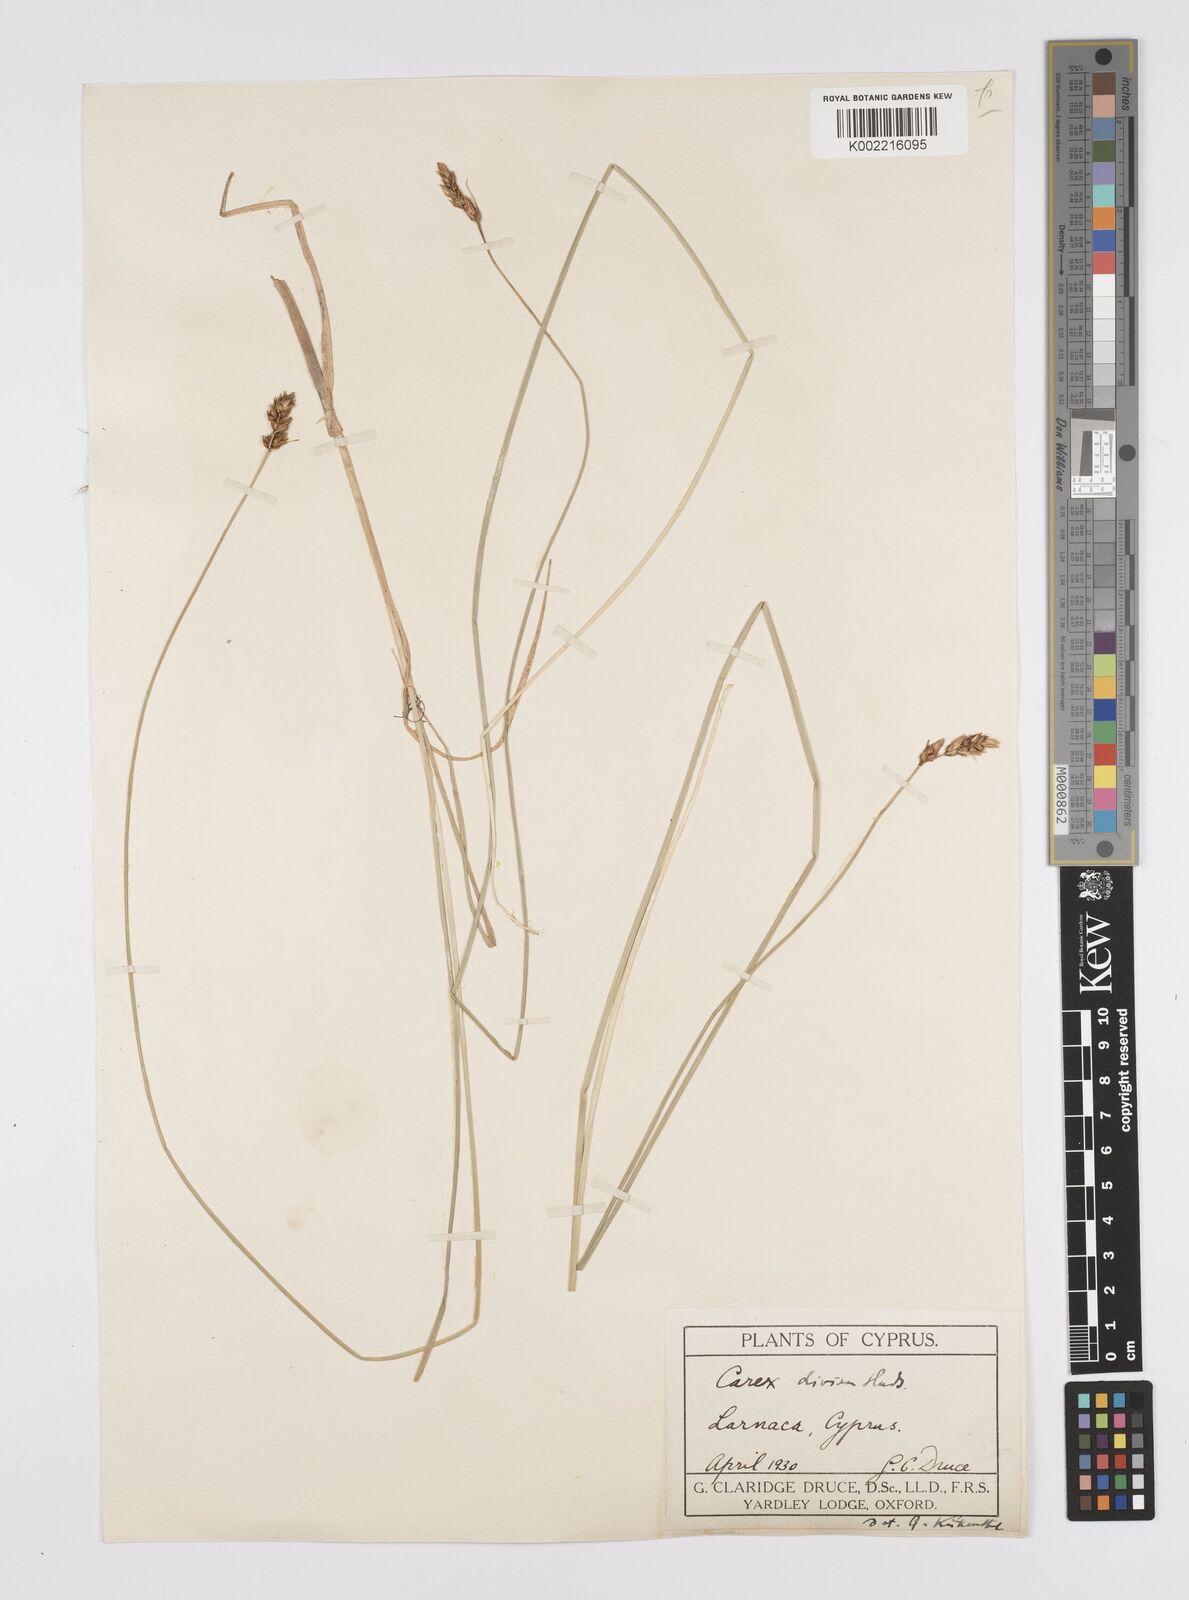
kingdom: Plantae
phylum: Tracheophyta
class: Liliopsida
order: Poales
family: Cyperaceae
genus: Carex
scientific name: Carex divisa
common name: Divided sedge
